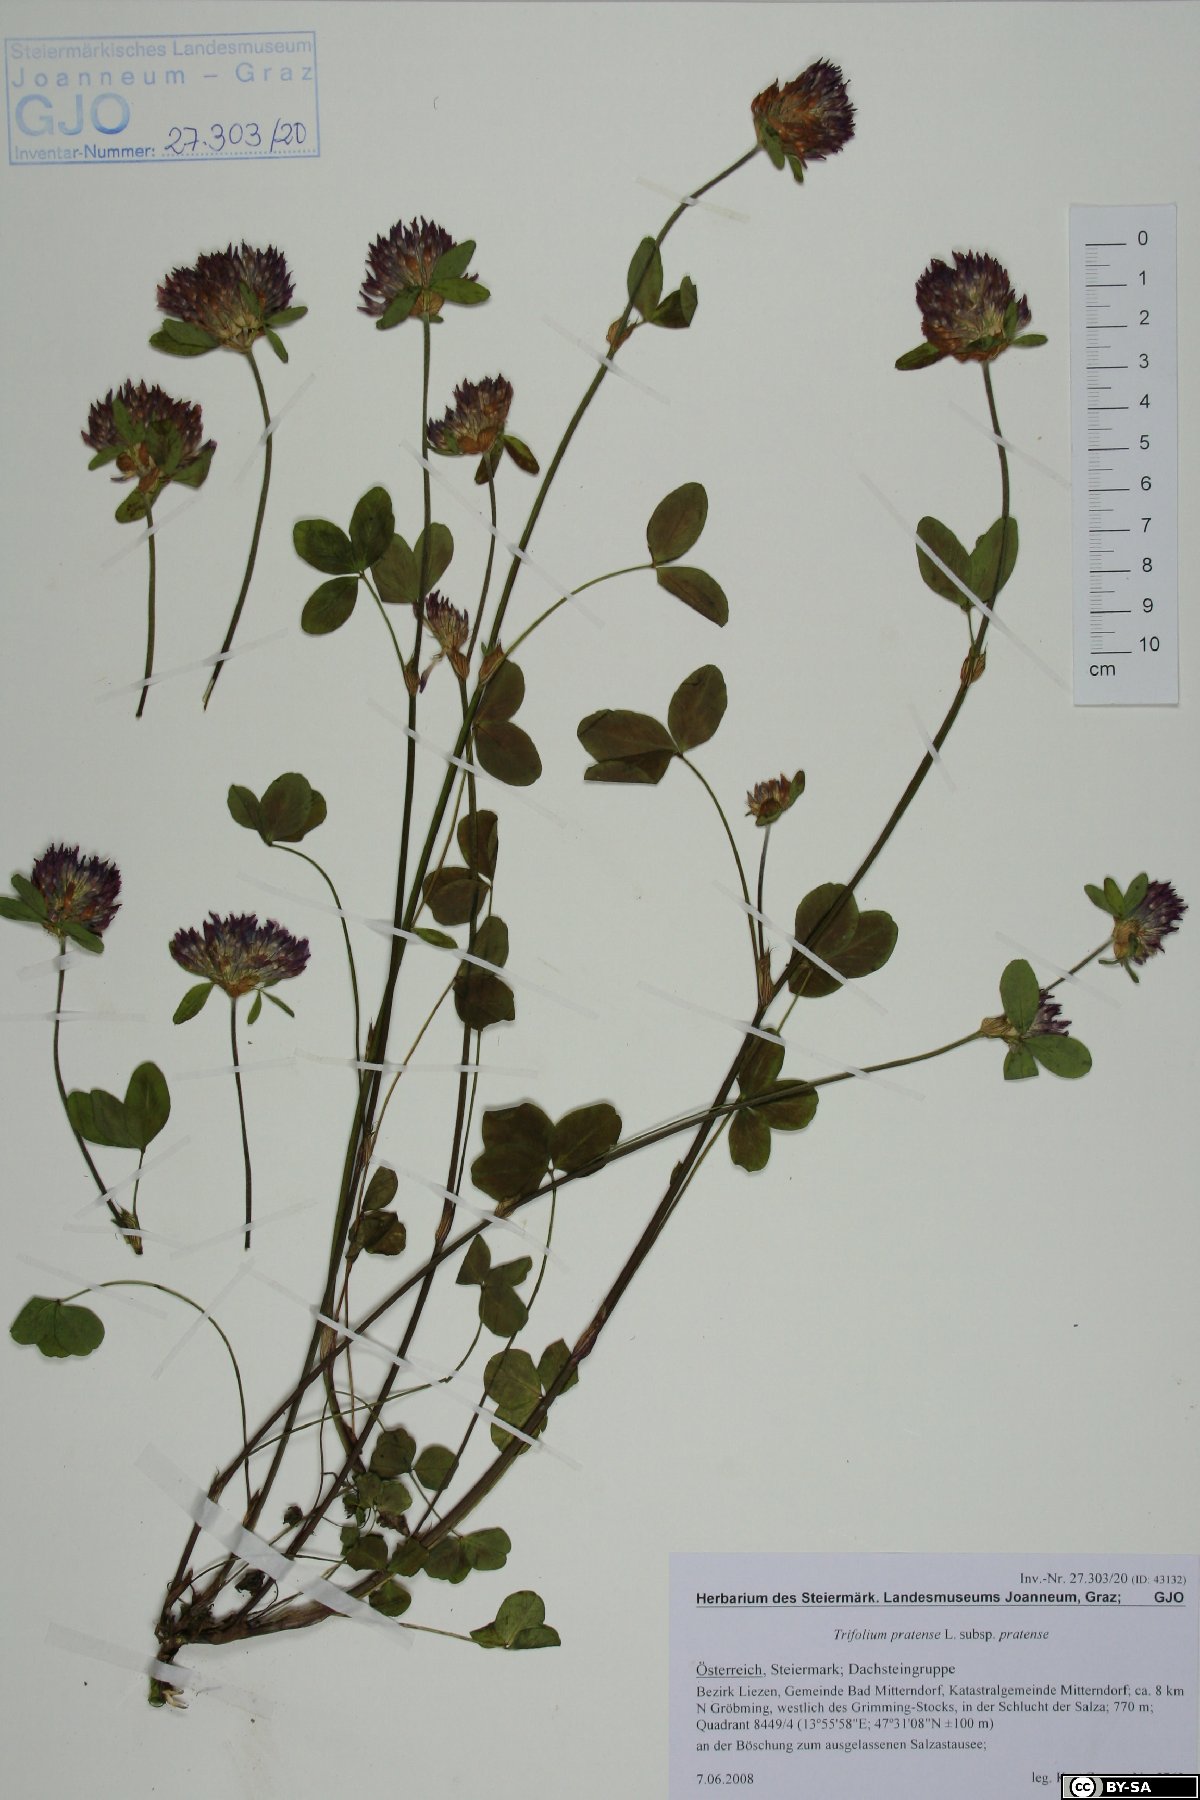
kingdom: Plantae
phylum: Tracheophyta
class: Magnoliopsida
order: Fabales
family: Fabaceae
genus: Trifolium
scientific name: Trifolium pratense
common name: Red clover
